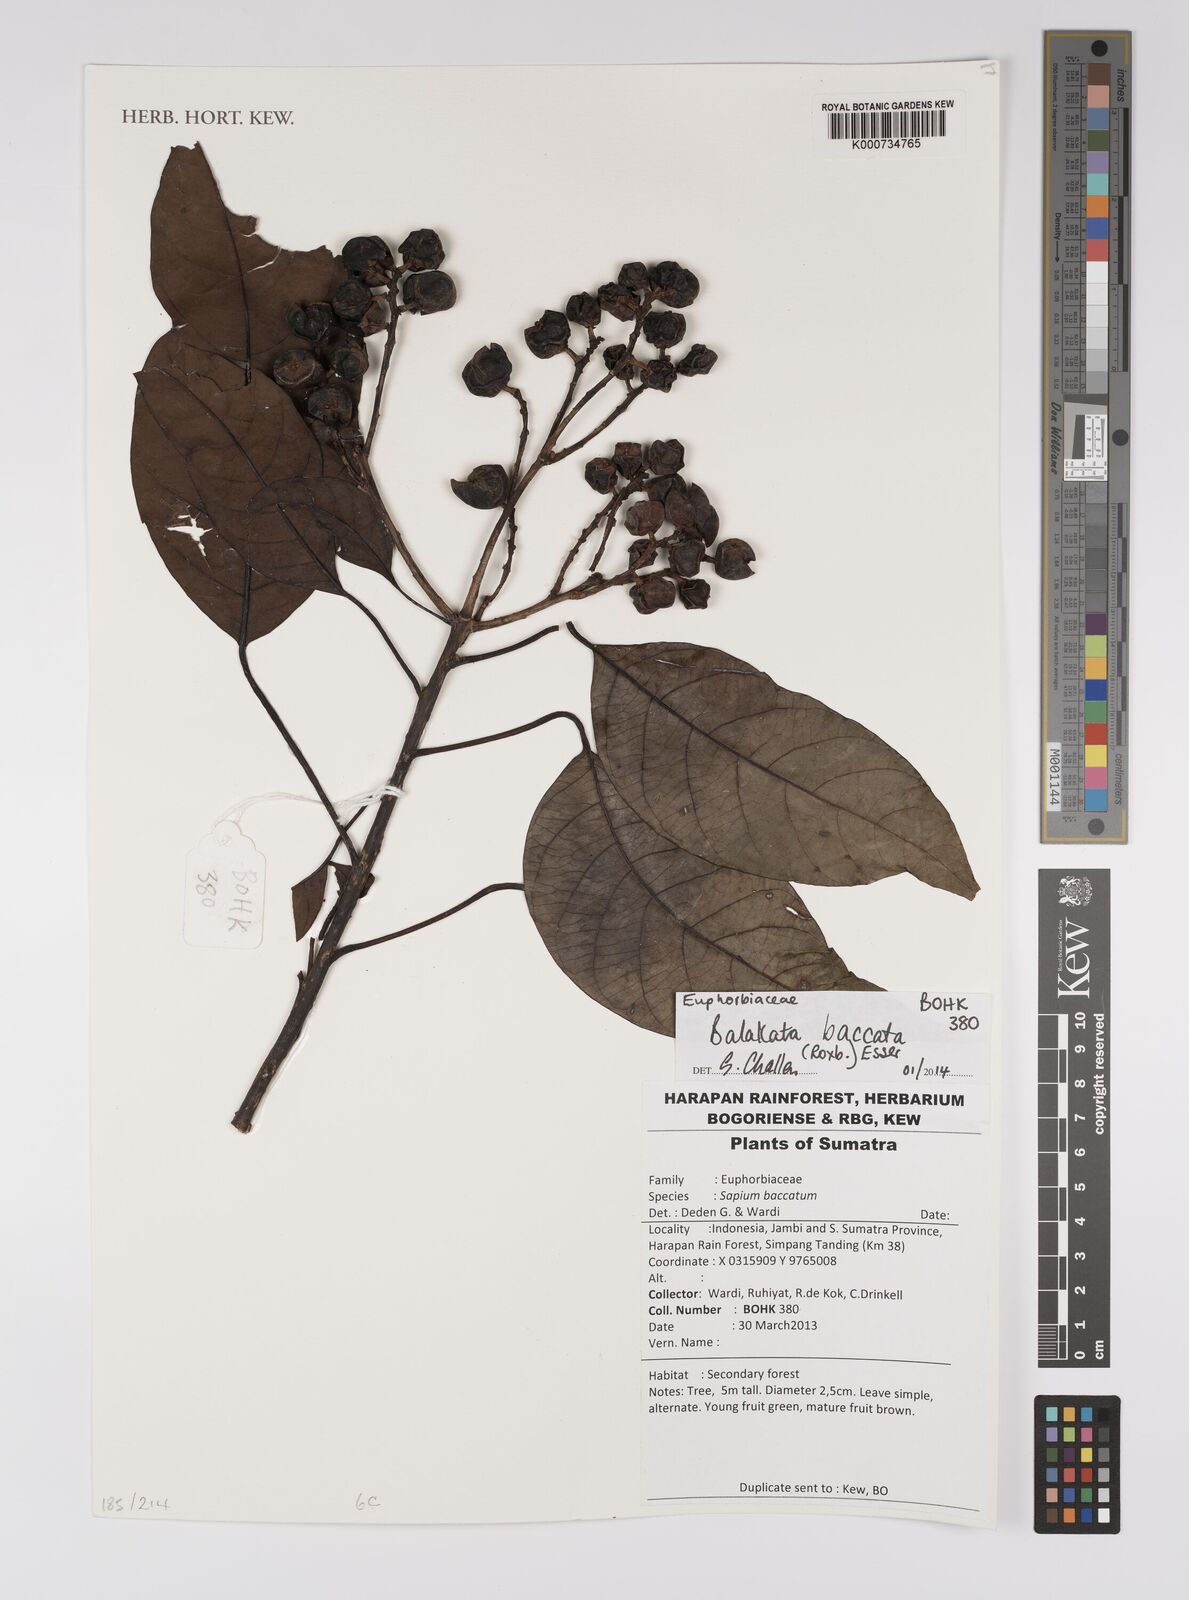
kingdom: Plantae
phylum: Tracheophyta
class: Magnoliopsida
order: Malpighiales
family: Euphorbiaceae
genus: Balakata
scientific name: Balakata baccata
